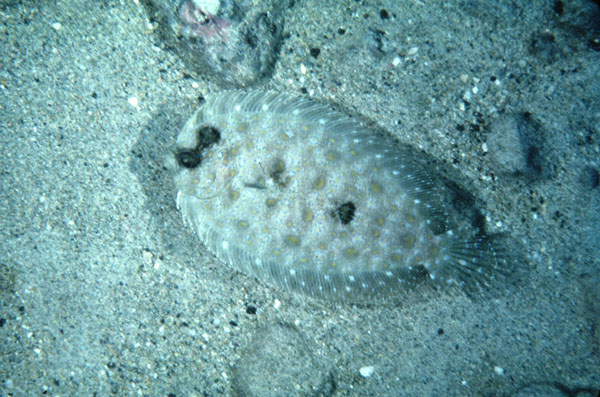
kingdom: Animalia
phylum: Chordata
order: Pleuronectiformes
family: Bothidae
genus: Bothus
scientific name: Bothus mancus
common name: Flowery flounder
